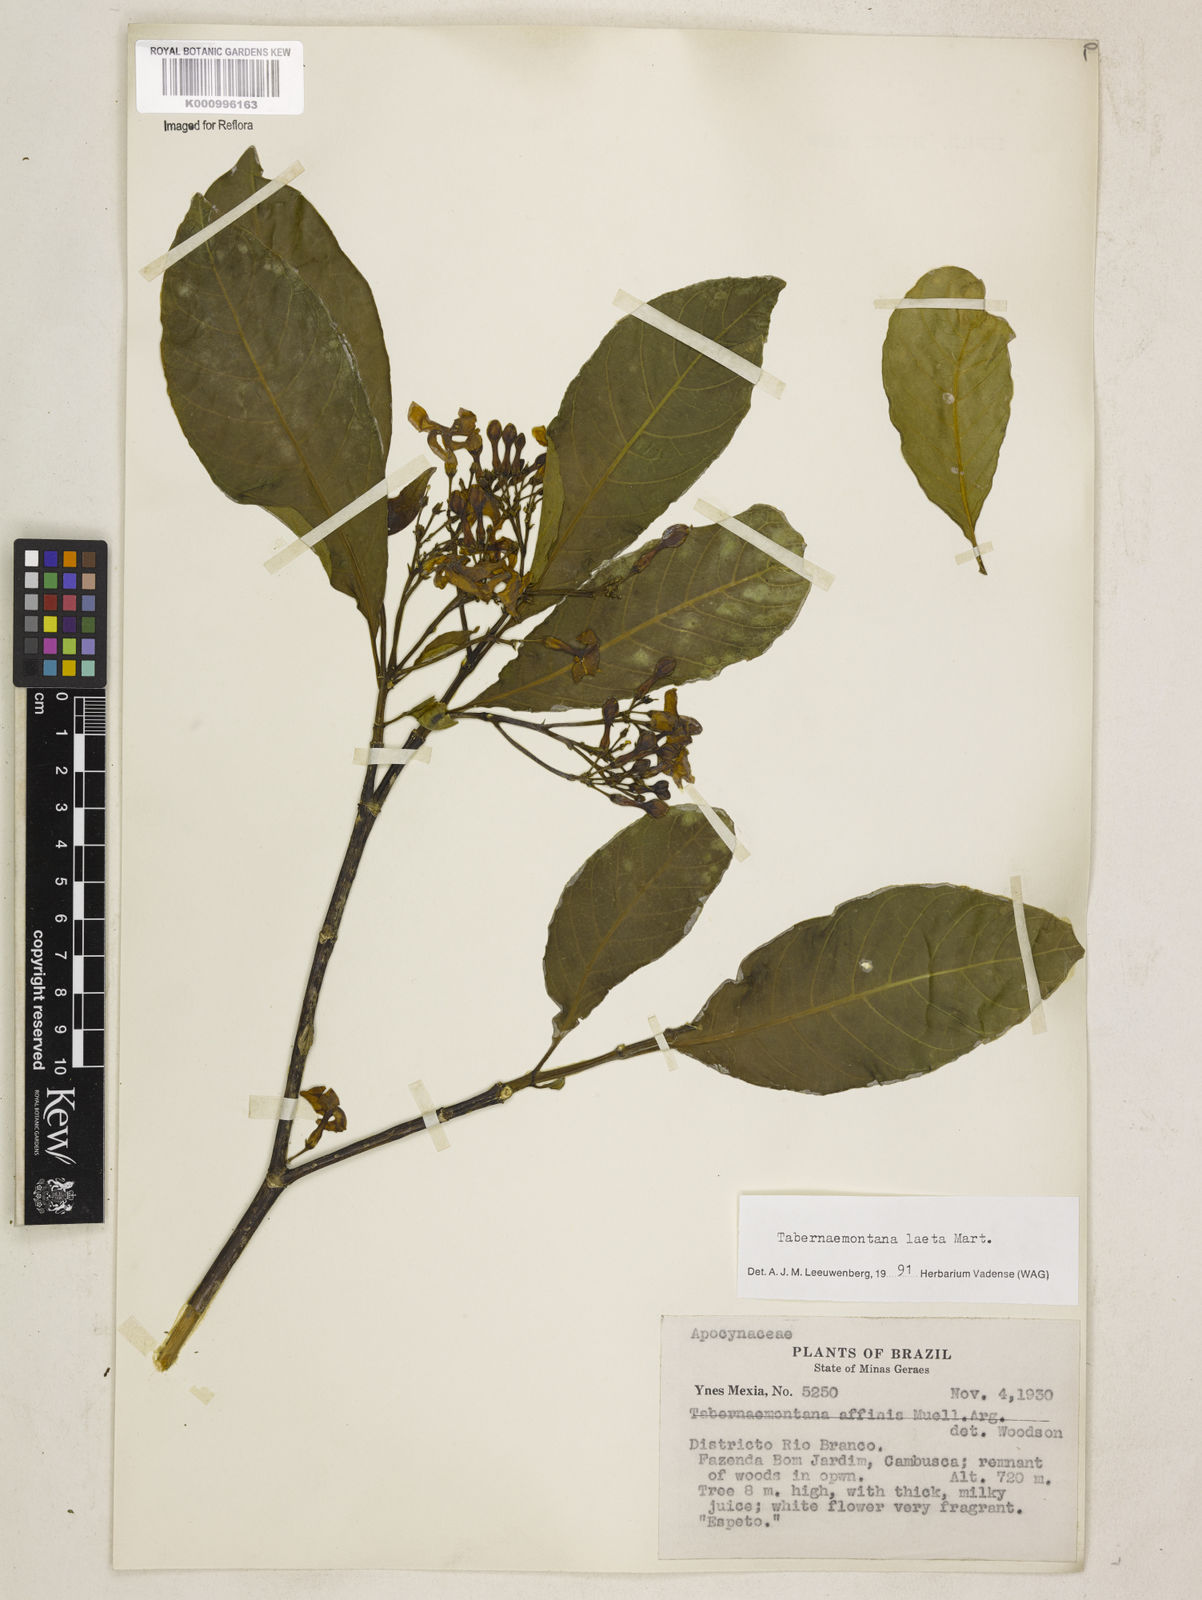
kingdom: Plantae
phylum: Tracheophyta
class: Magnoliopsida
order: Gentianales
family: Apocynaceae
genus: Tabernaemontana
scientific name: Tabernaemontana laeta
